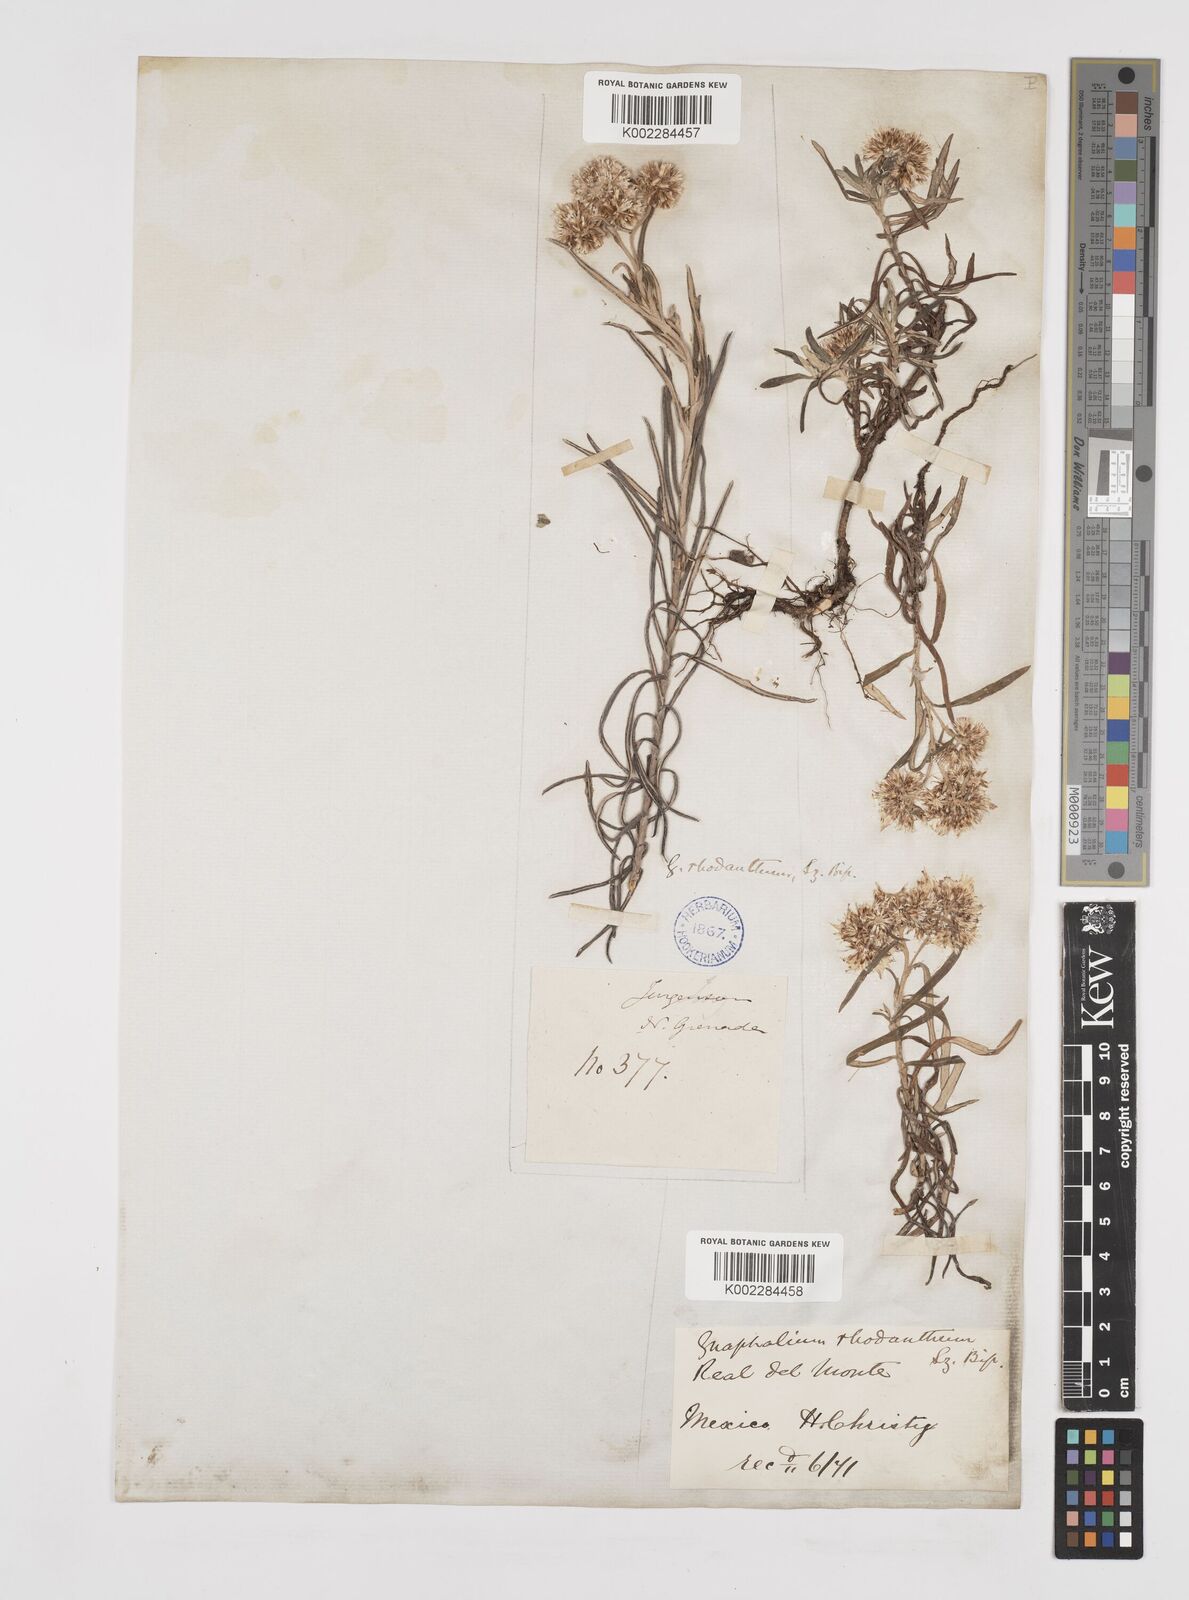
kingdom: Plantae
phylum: Tracheophyta
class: Magnoliopsida
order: Asterales
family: Asteraceae
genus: Gnaphaliothamnus
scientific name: Gnaphaliothamnus salicifolius
